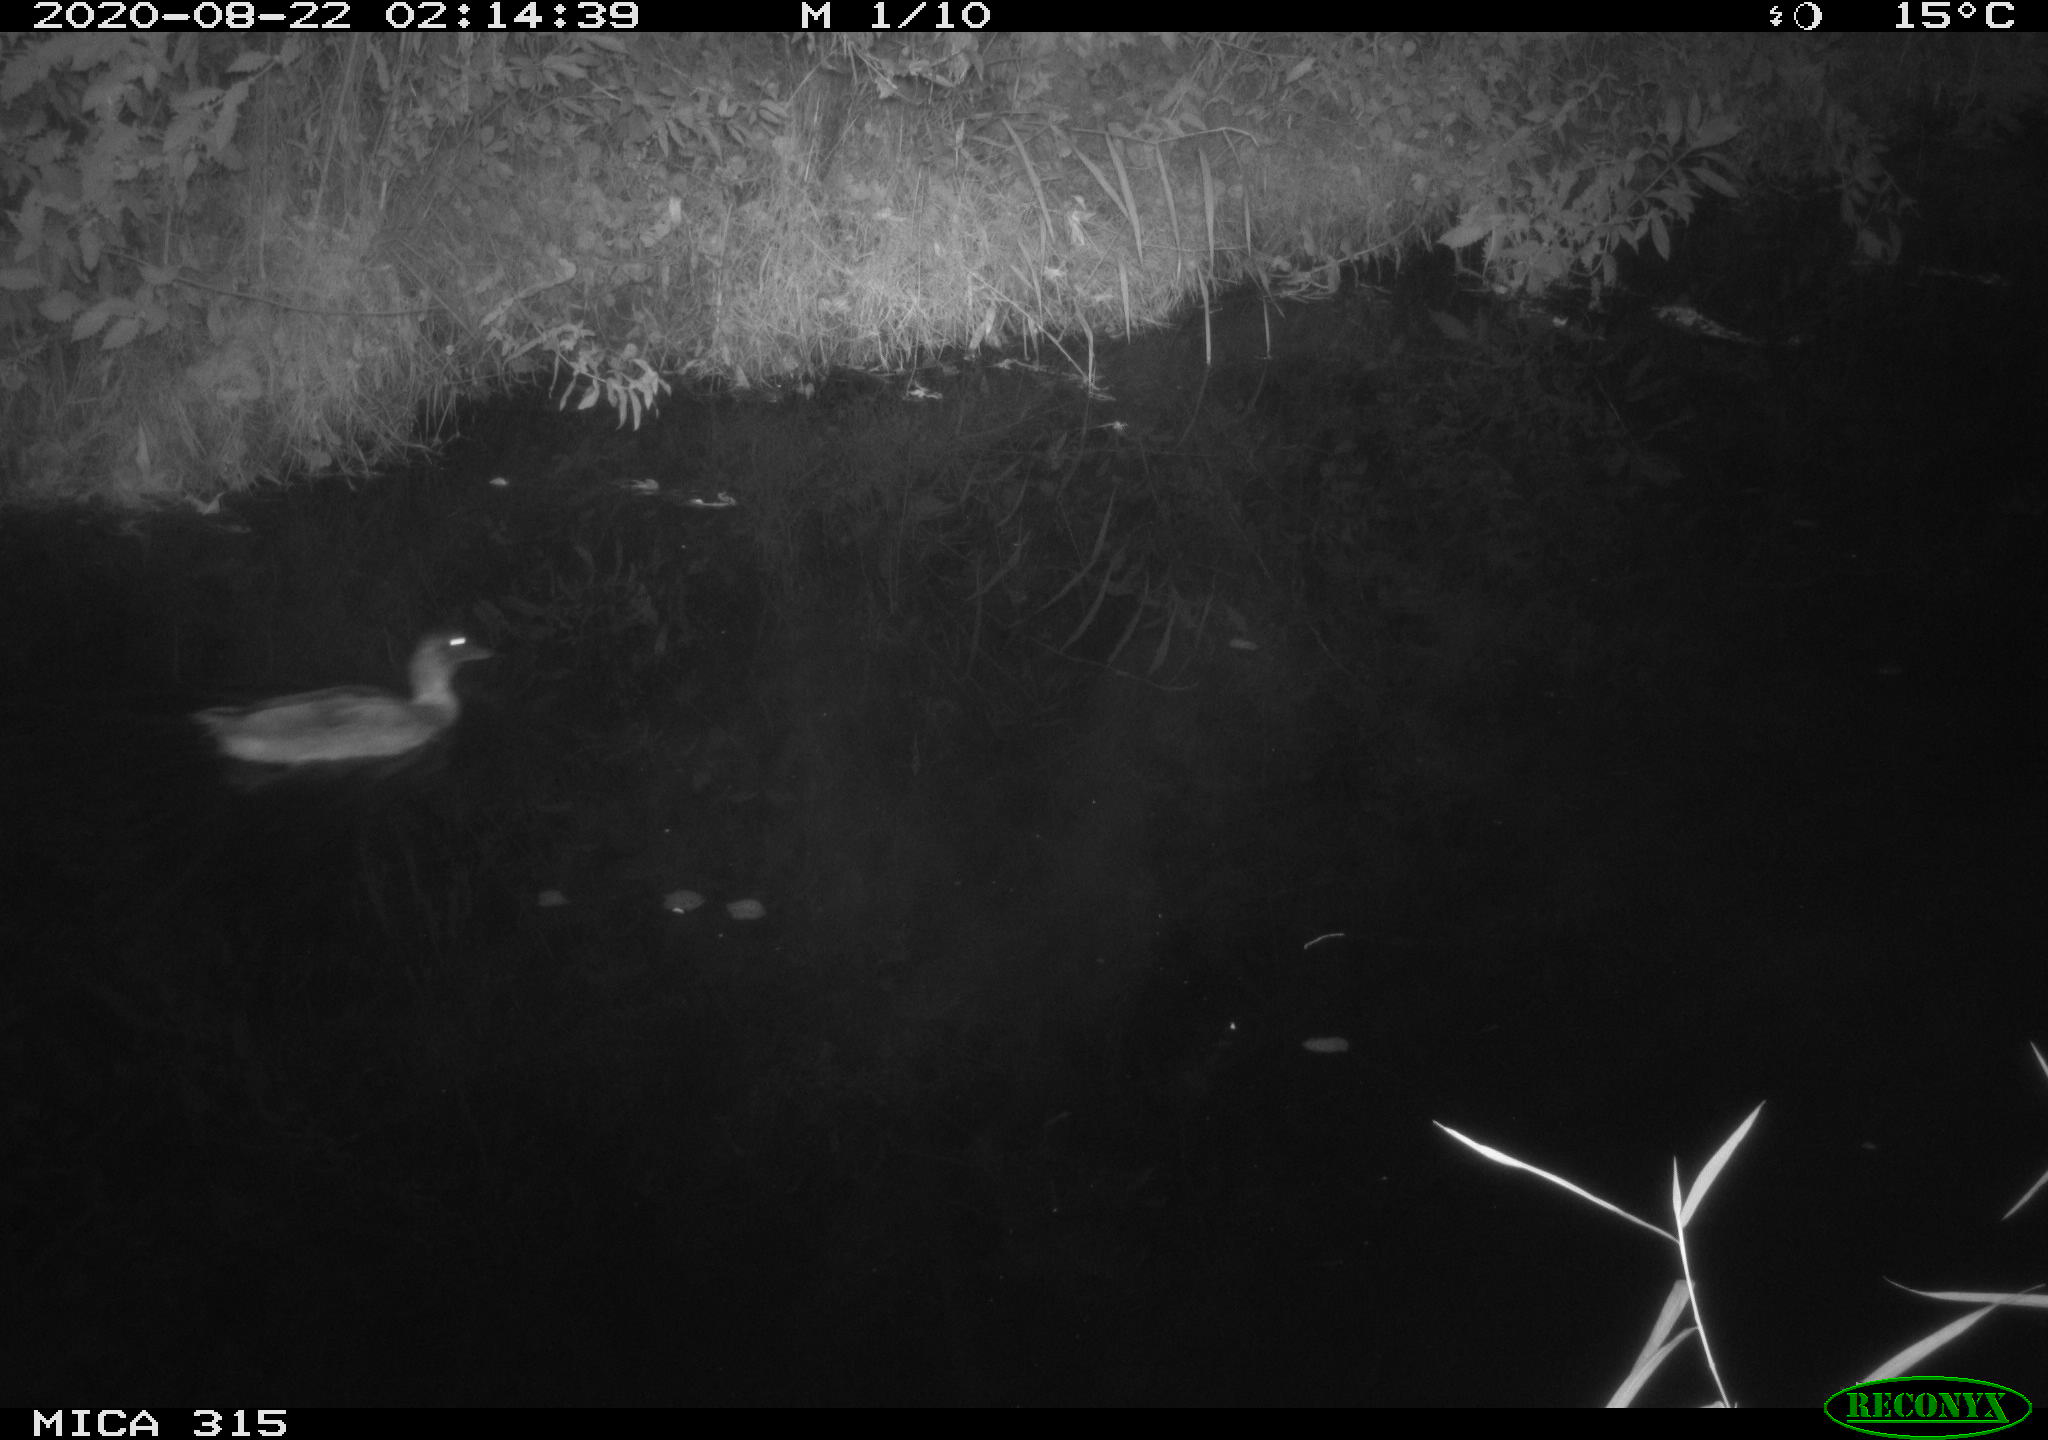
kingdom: Animalia
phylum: Chordata
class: Aves
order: Anseriformes
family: Anatidae
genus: Anas
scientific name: Anas platyrhynchos
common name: Mallard
